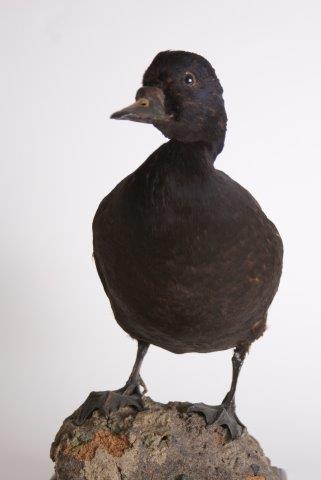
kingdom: Animalia
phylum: Chordata
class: Aves
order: Anseriformes
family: Anatidae
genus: Melanitta
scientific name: Melanitta nigra
